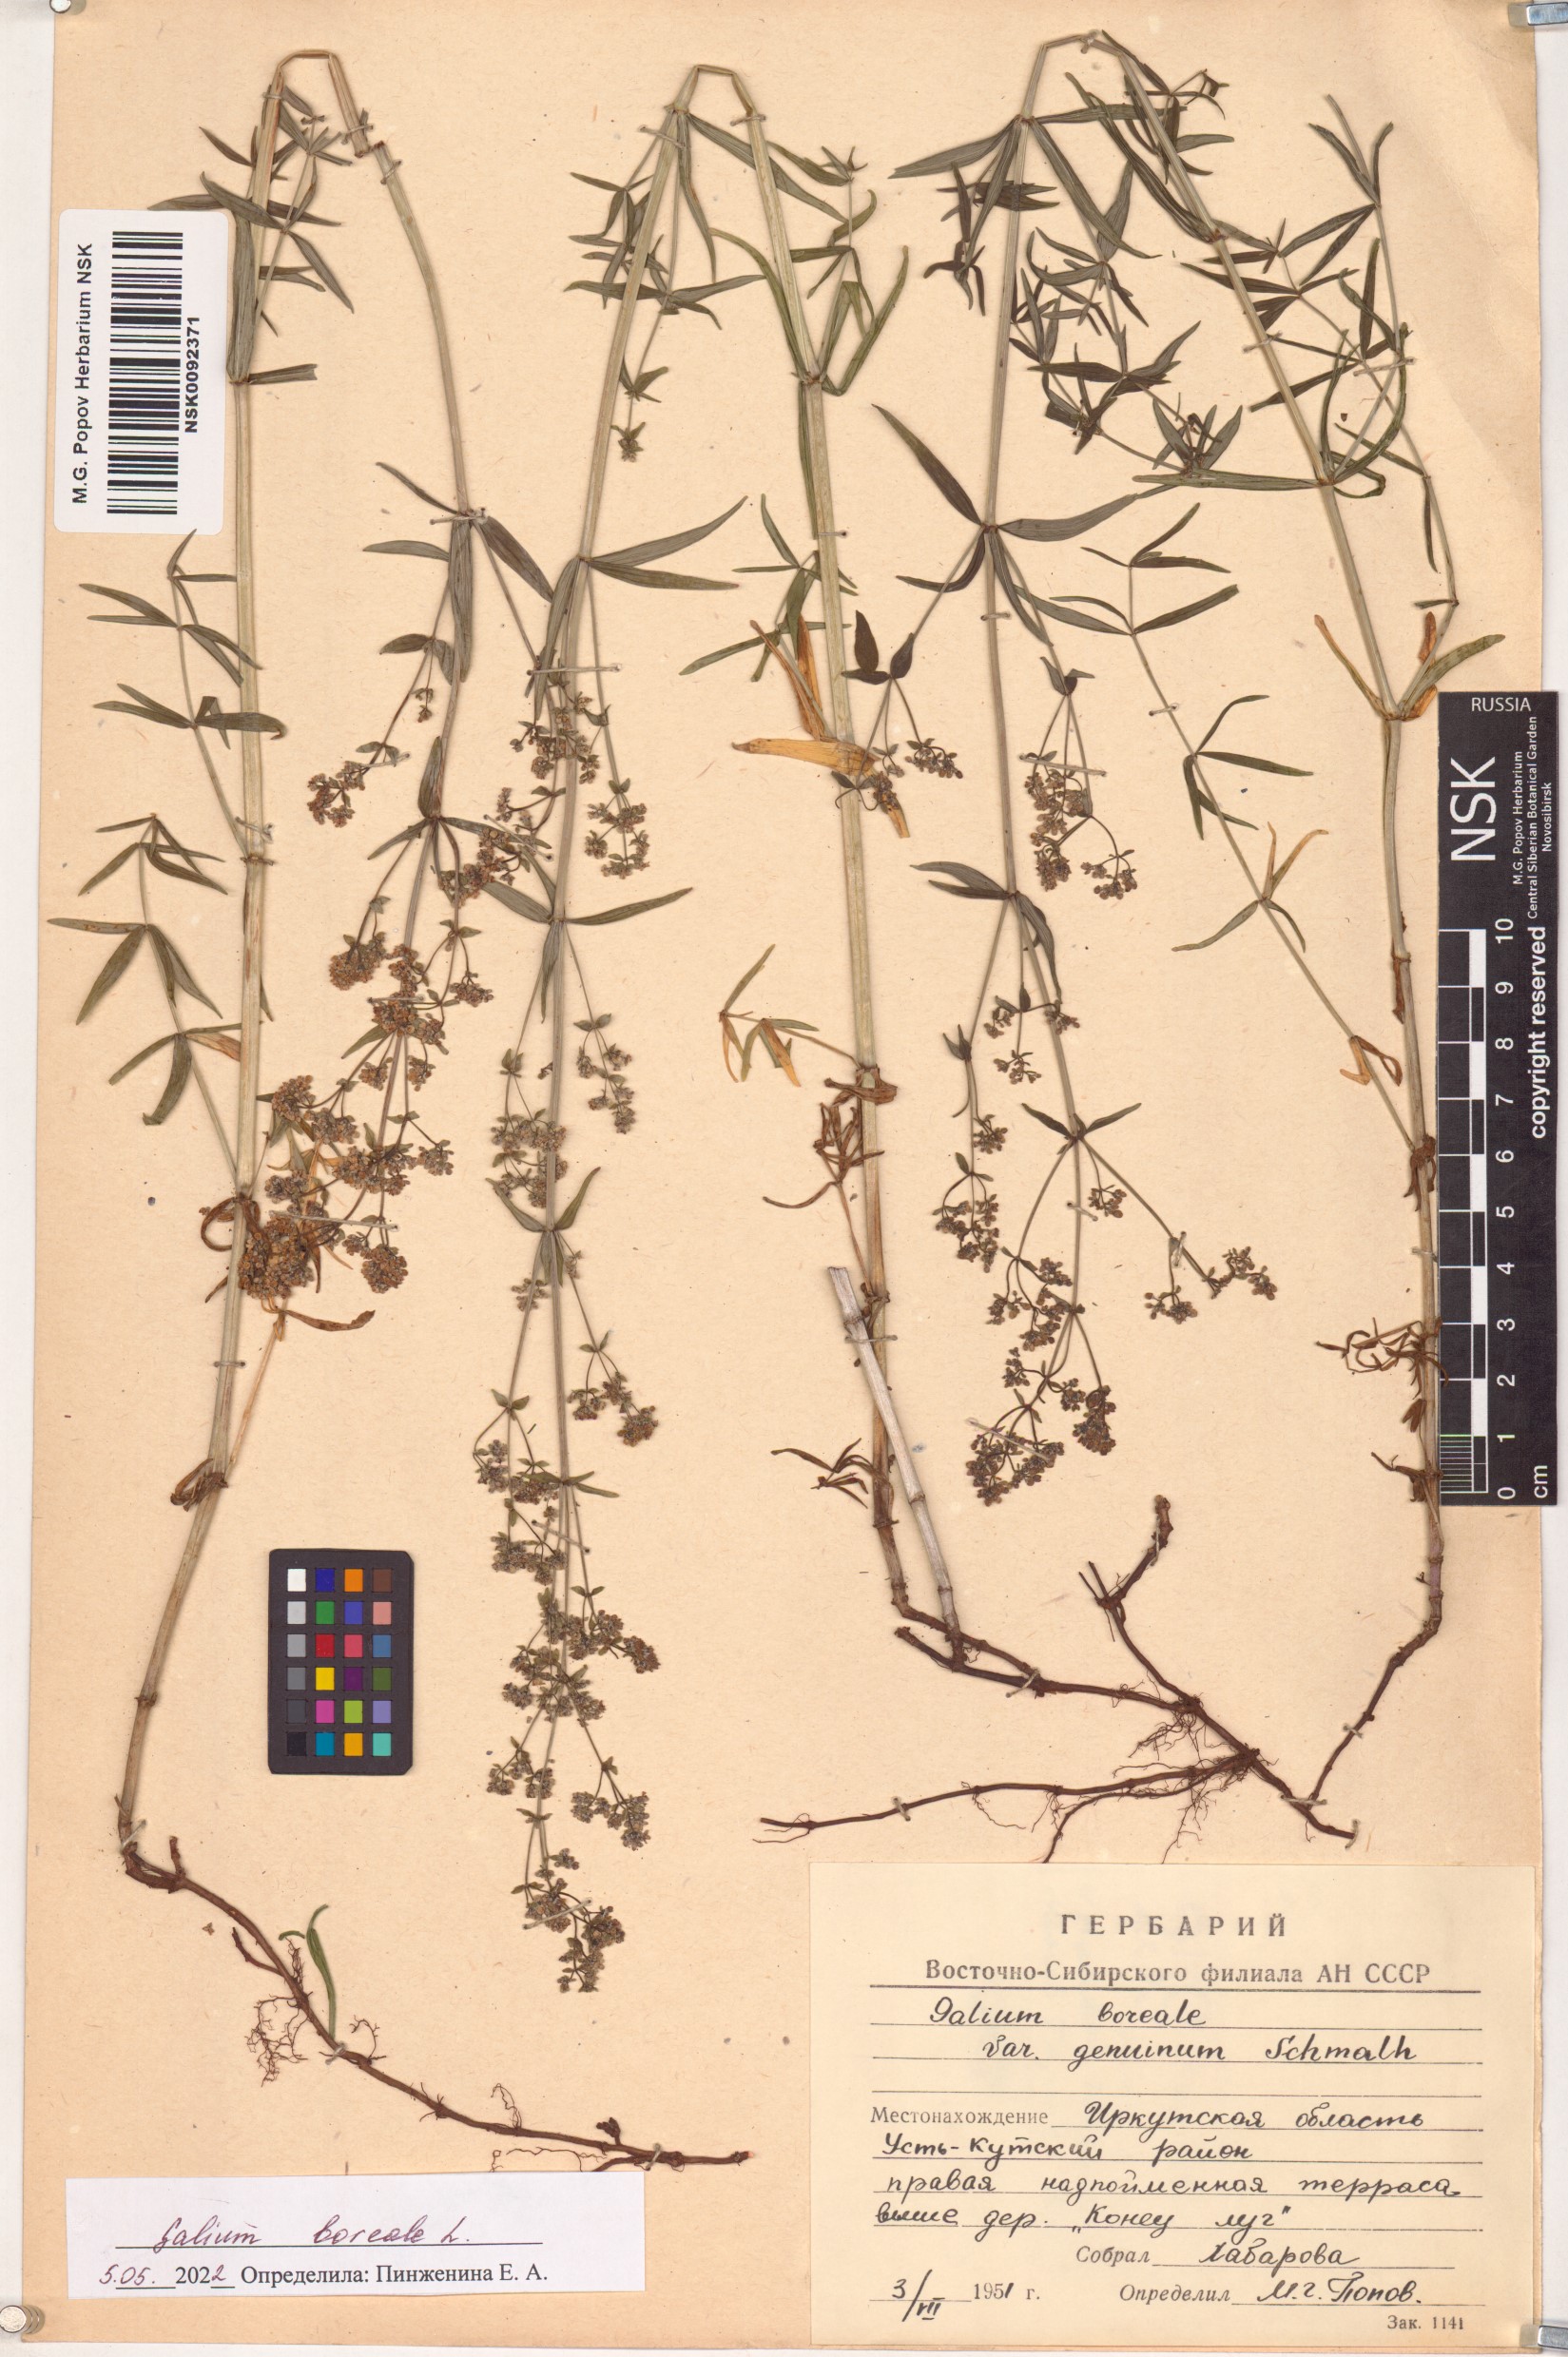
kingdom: Plantae
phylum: Tracheophyta
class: Magnoliopsida
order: Gentianales
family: Rubiaceae
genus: Galium
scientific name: Galium boreale
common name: Northern bedstraw
